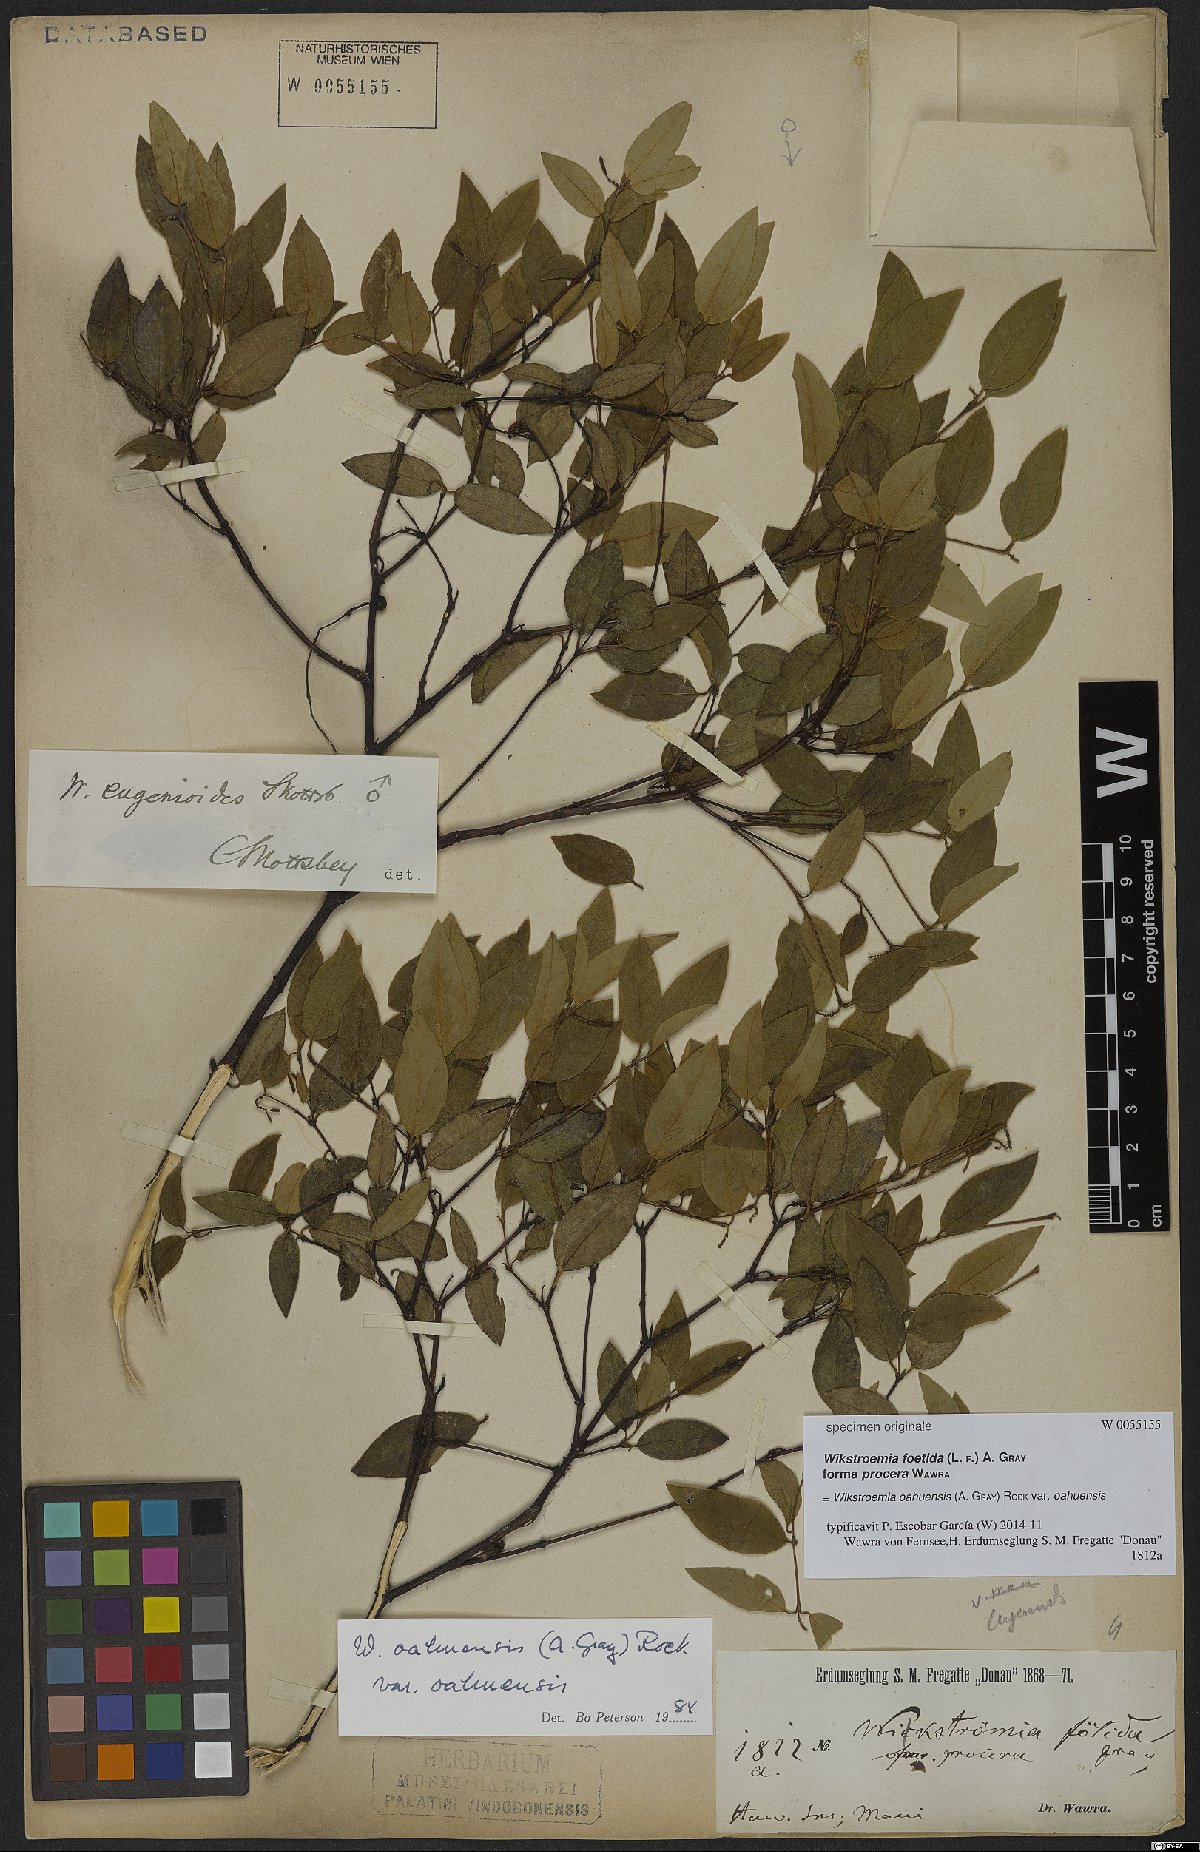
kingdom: Plantae
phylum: Tracheophyta
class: Magnoliopsida
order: Malvales
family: Thymelaeaceae
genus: Wikstroemia
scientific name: Wikstroemia oahuensis
